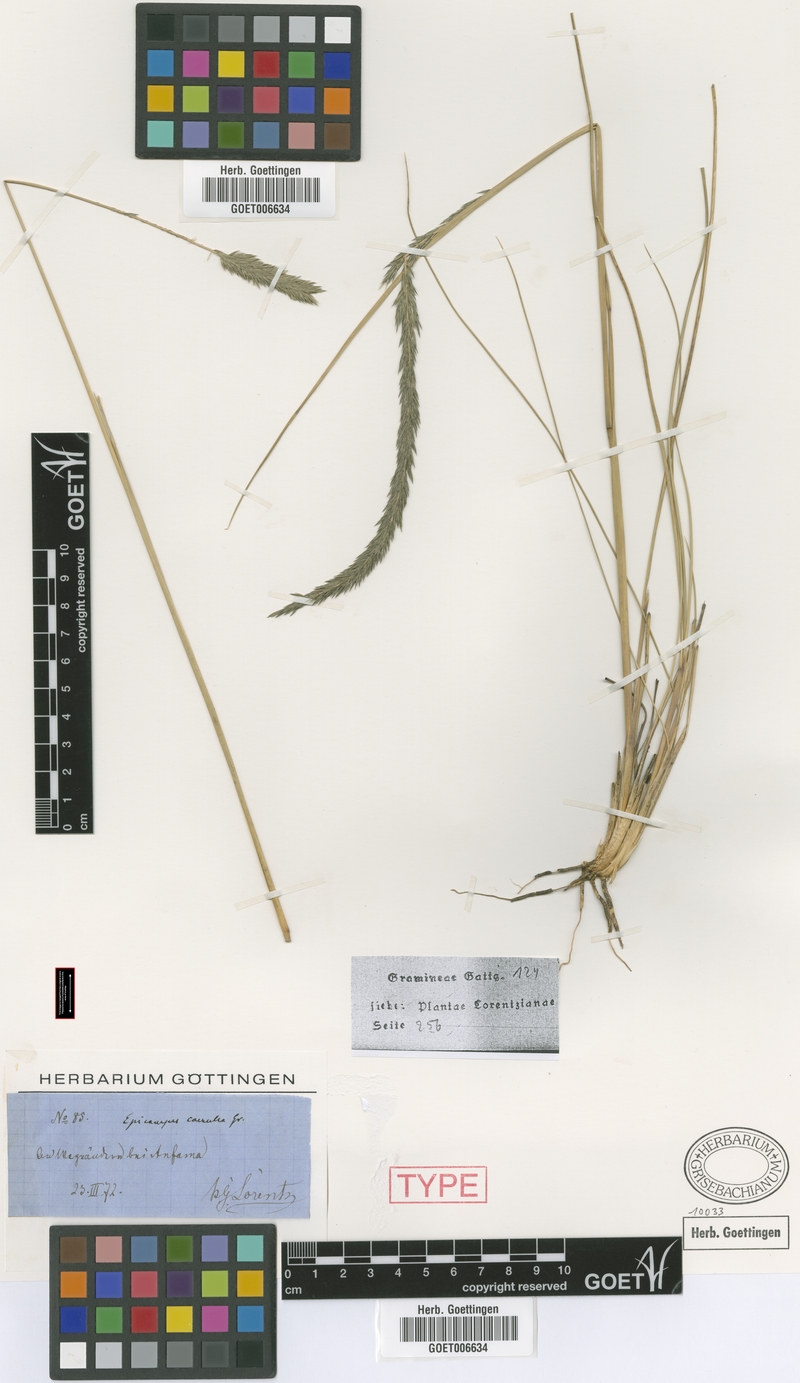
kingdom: Plantae
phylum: Tracheophyta
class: Liliopsida
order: Poales
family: Poaceae
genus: Muhlenbergia
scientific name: Muhlenbergia angustata
